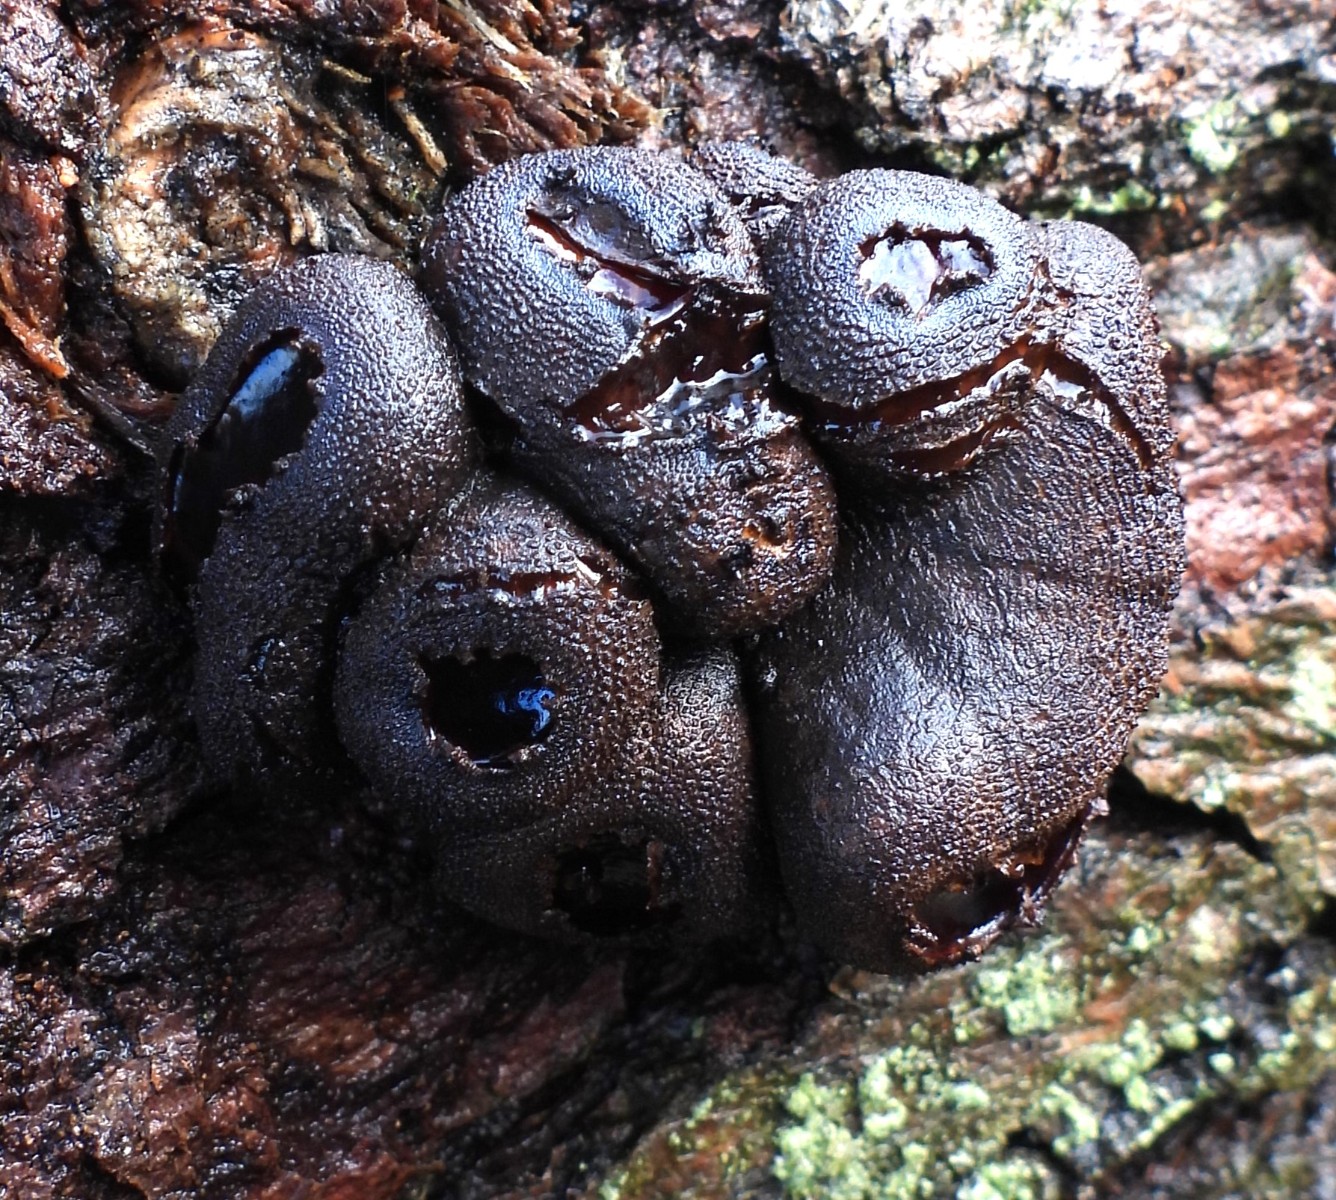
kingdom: Fungi
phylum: Ascomycota
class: Leotiomycetes
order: Phacidiales
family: Phacidiaceae
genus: Bulgaria
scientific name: Bulgaria inquinans
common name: afsmittende topsvamp
